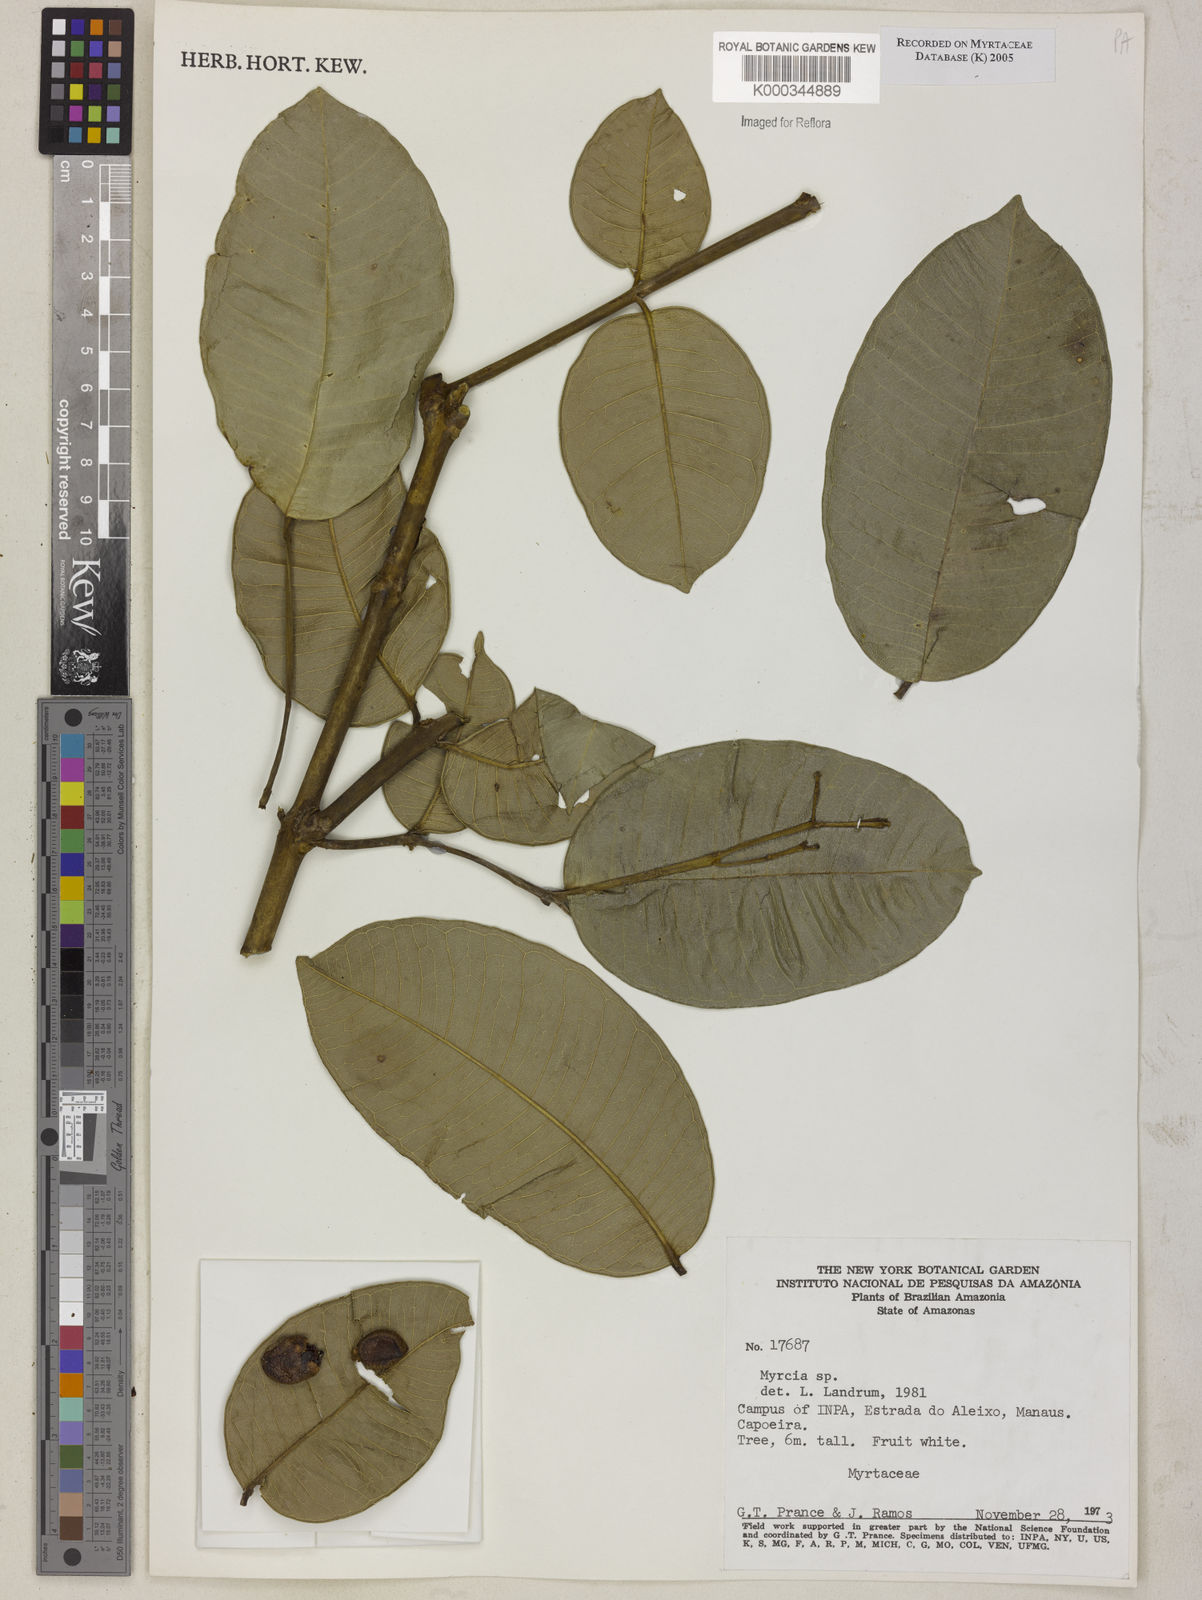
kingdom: Plantae
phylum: Tracheophyta
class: Magnoliopsida
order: Myrtales
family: Myrtaceae
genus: Myrcia
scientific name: Myrcia
